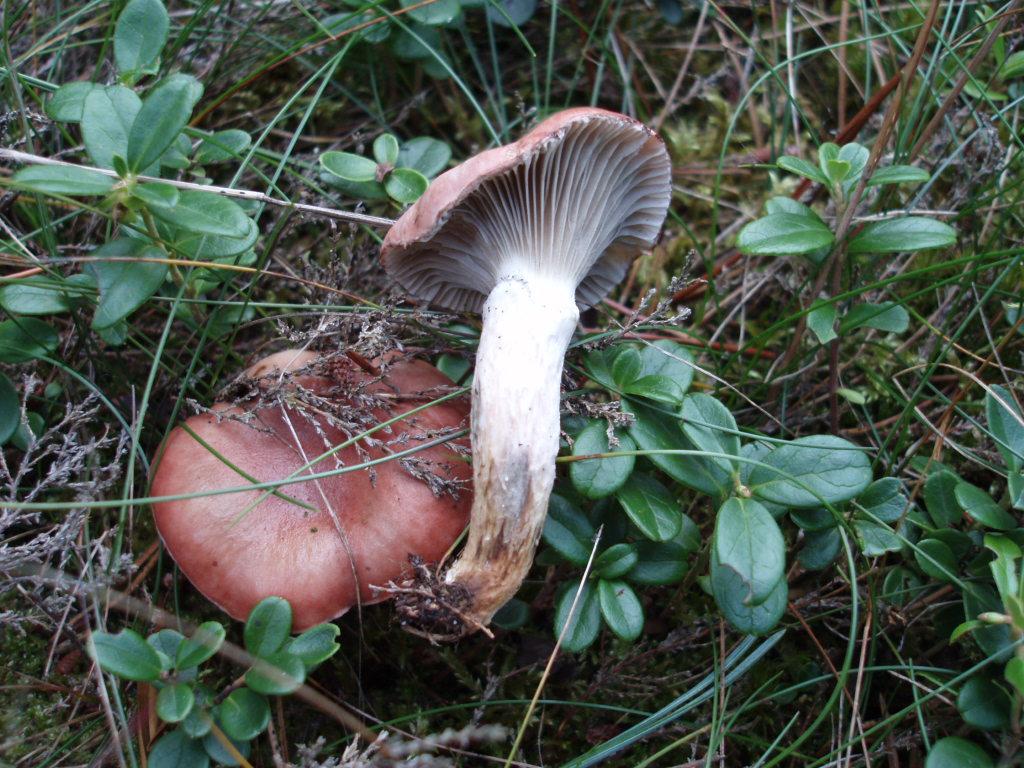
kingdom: Fungi
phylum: Basidiomycota
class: Agaricomycetes
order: Boletales
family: Gomphidiaceae
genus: Gomphidius
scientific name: Gomphidius roseus
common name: rosenrød slimslør
